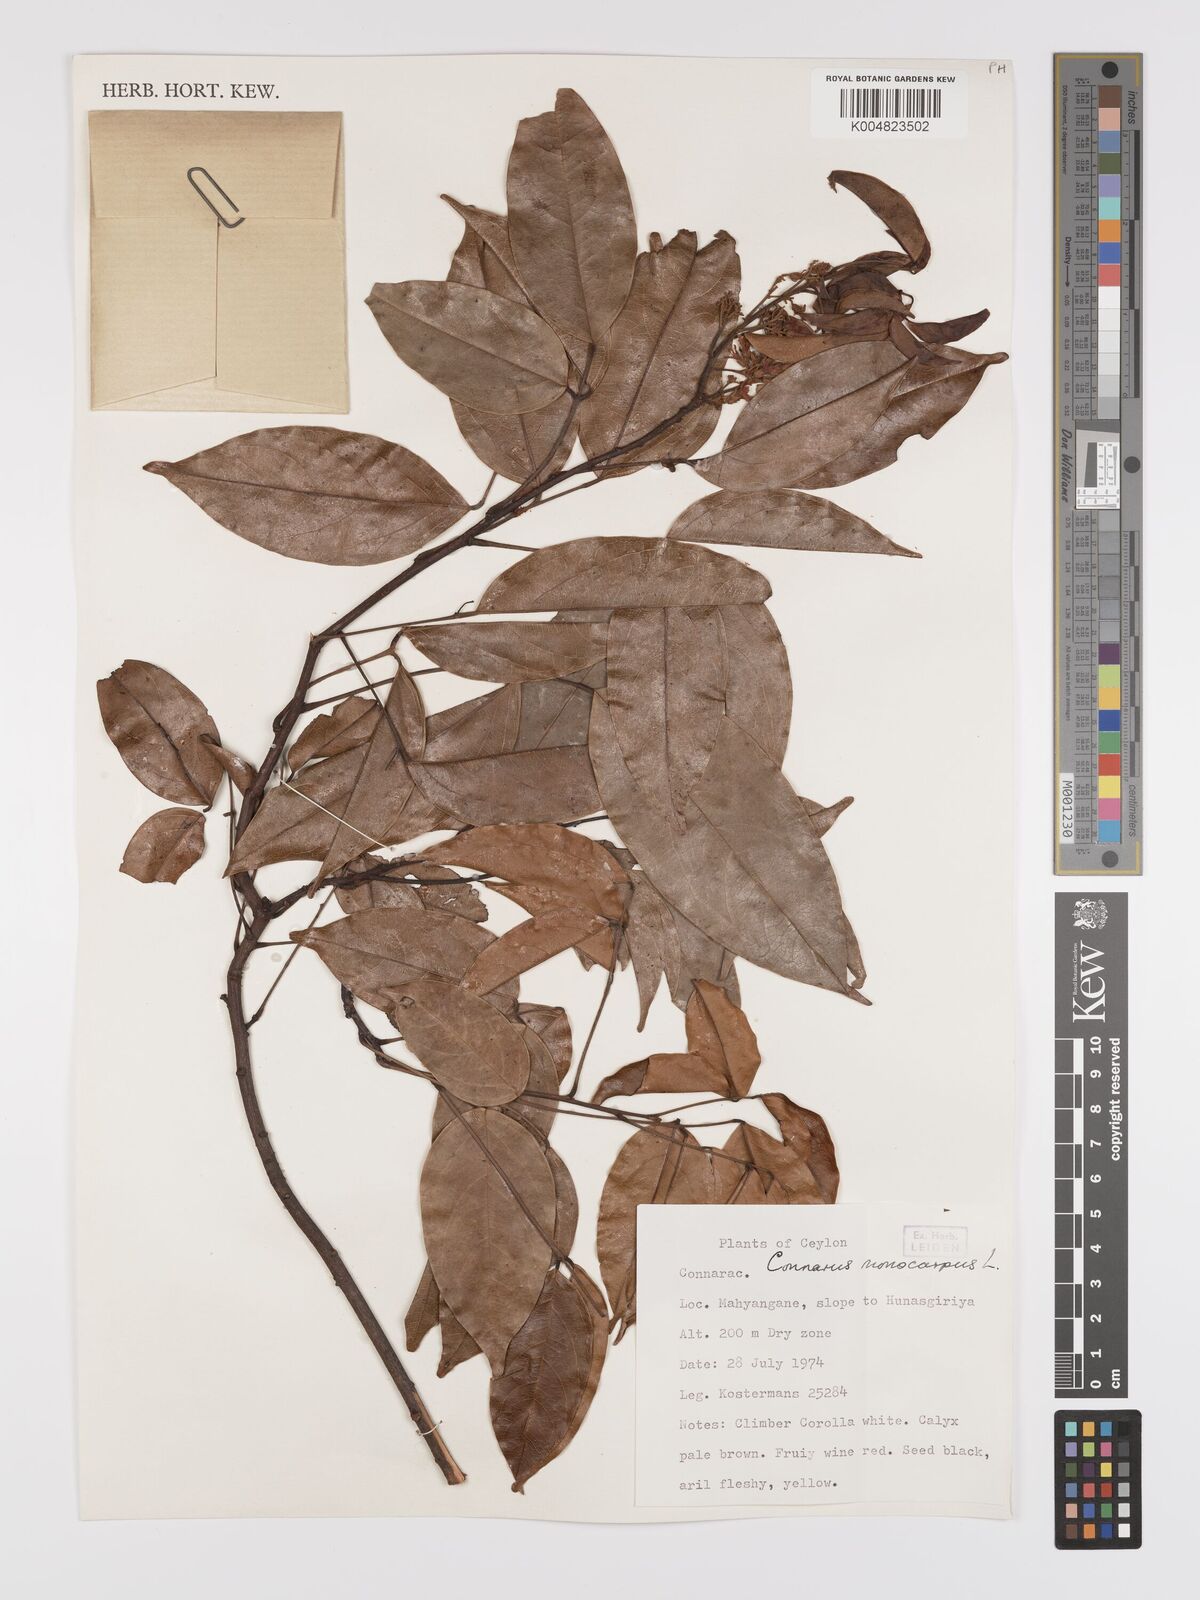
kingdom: Plantae
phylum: Tracheophyta
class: Magnoliopsida
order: Oxalidales
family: Connaraceae
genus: Connarus
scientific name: Connarus semidecandrus
